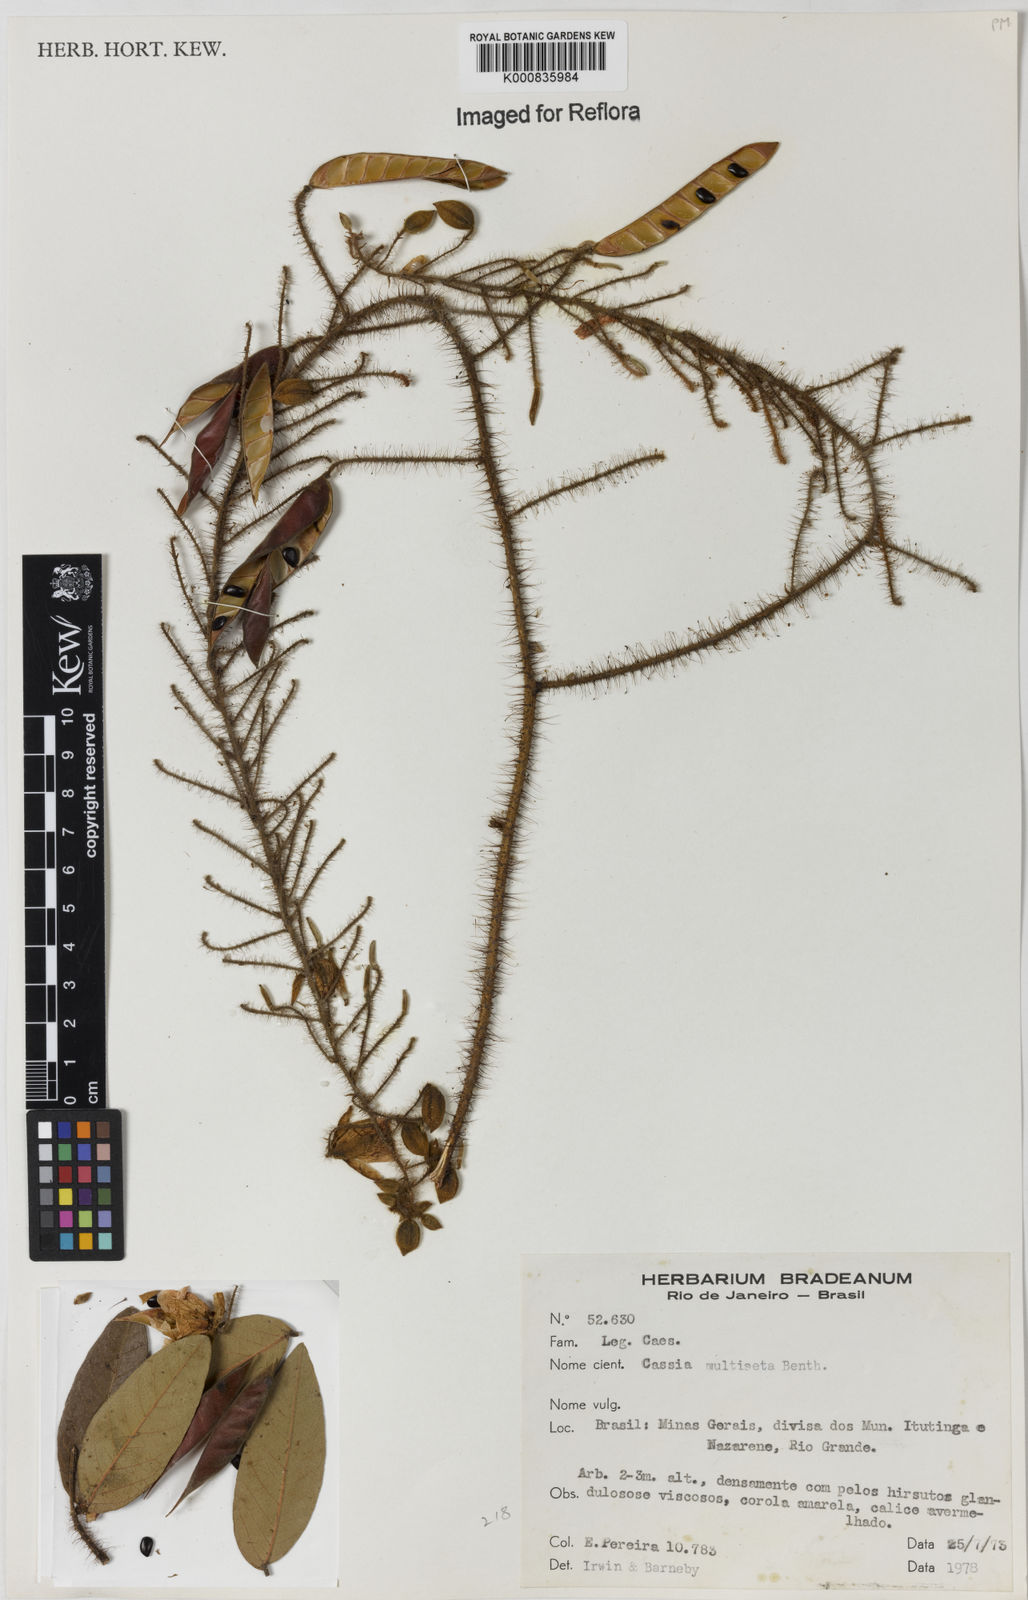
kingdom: Plantae
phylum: Tracheophyta
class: Magnoliopsida
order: Fabales
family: Fabaceae
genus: Chamaecrista
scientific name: Chamaecrista multiseta
